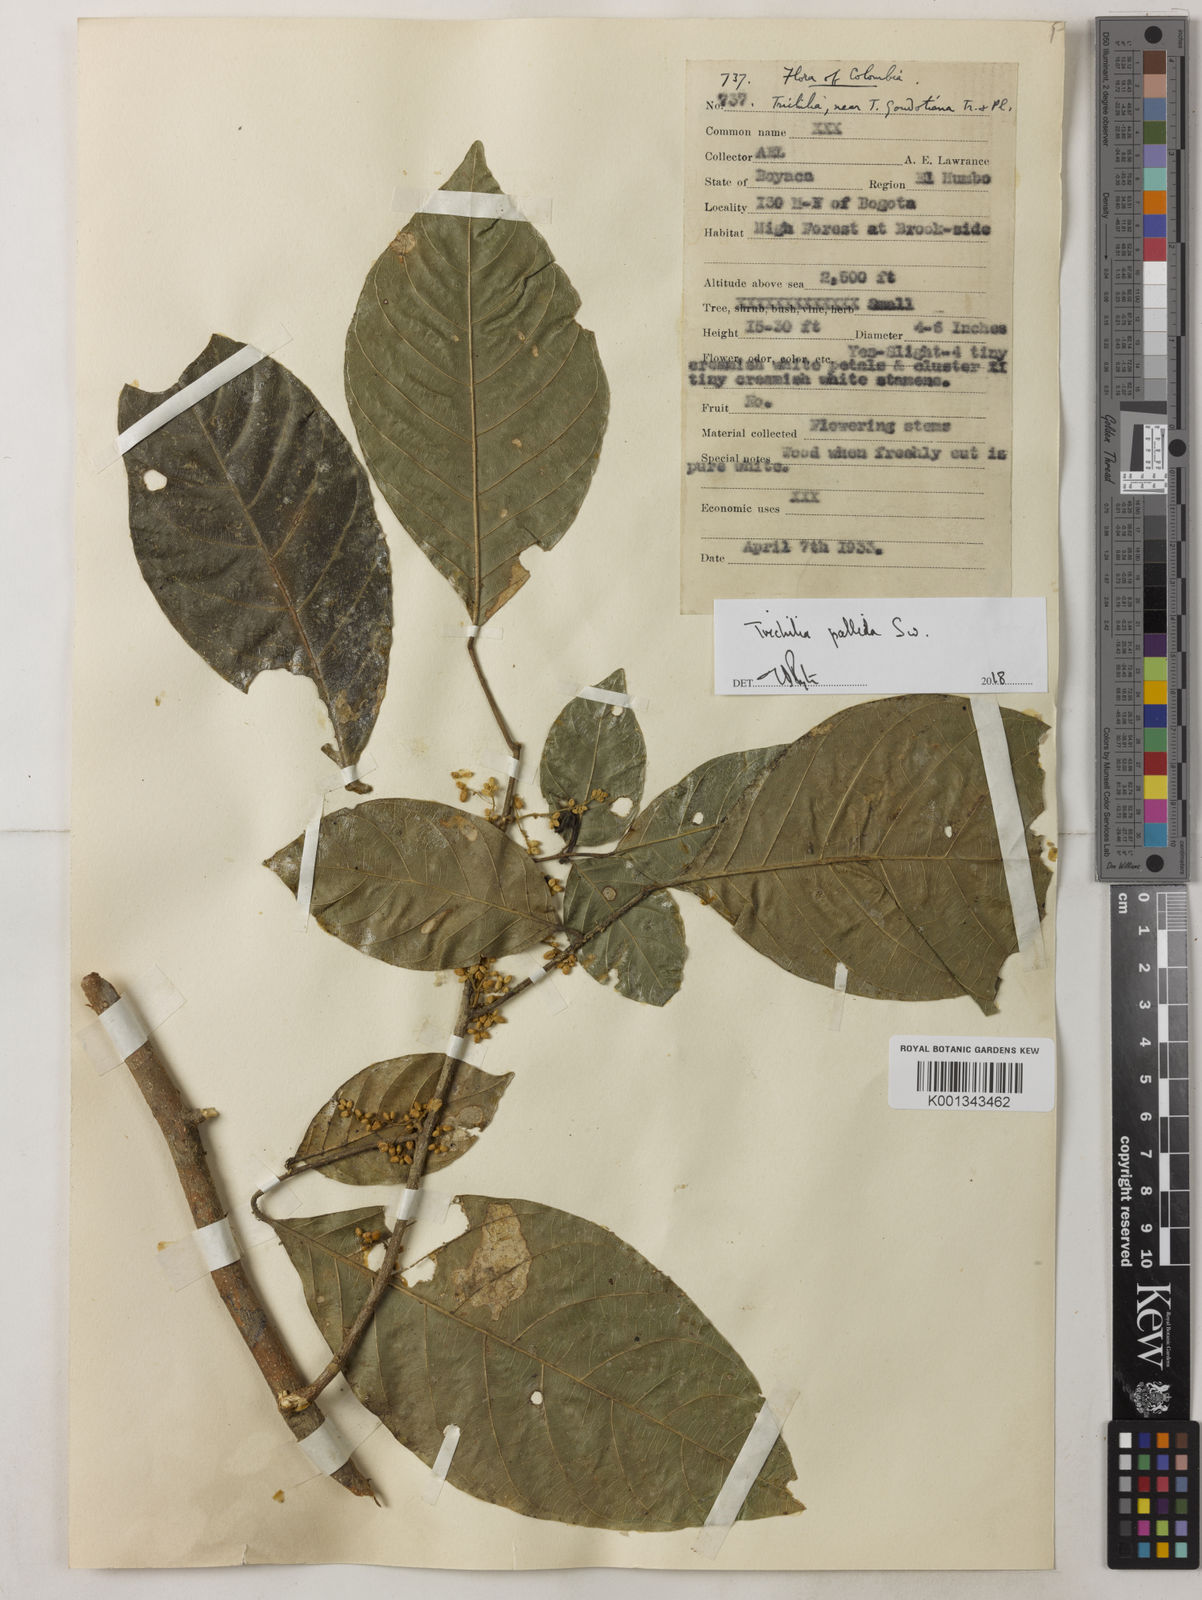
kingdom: Plantae
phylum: Tracheophyta
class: Magnoliopsida
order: Sapindales
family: Meliaceae
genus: Trichilia
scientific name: Trichilia pallida
